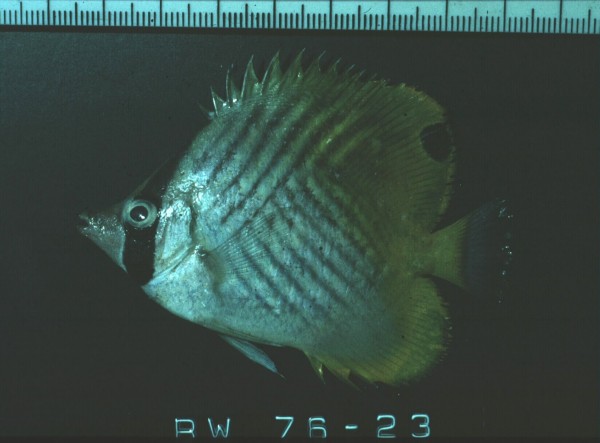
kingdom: Animalia
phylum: Chordata
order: Perciformes
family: Chaetodontidae
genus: Chaetodon
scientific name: Chaetodon auriga
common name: Threadfin butterflyfish
